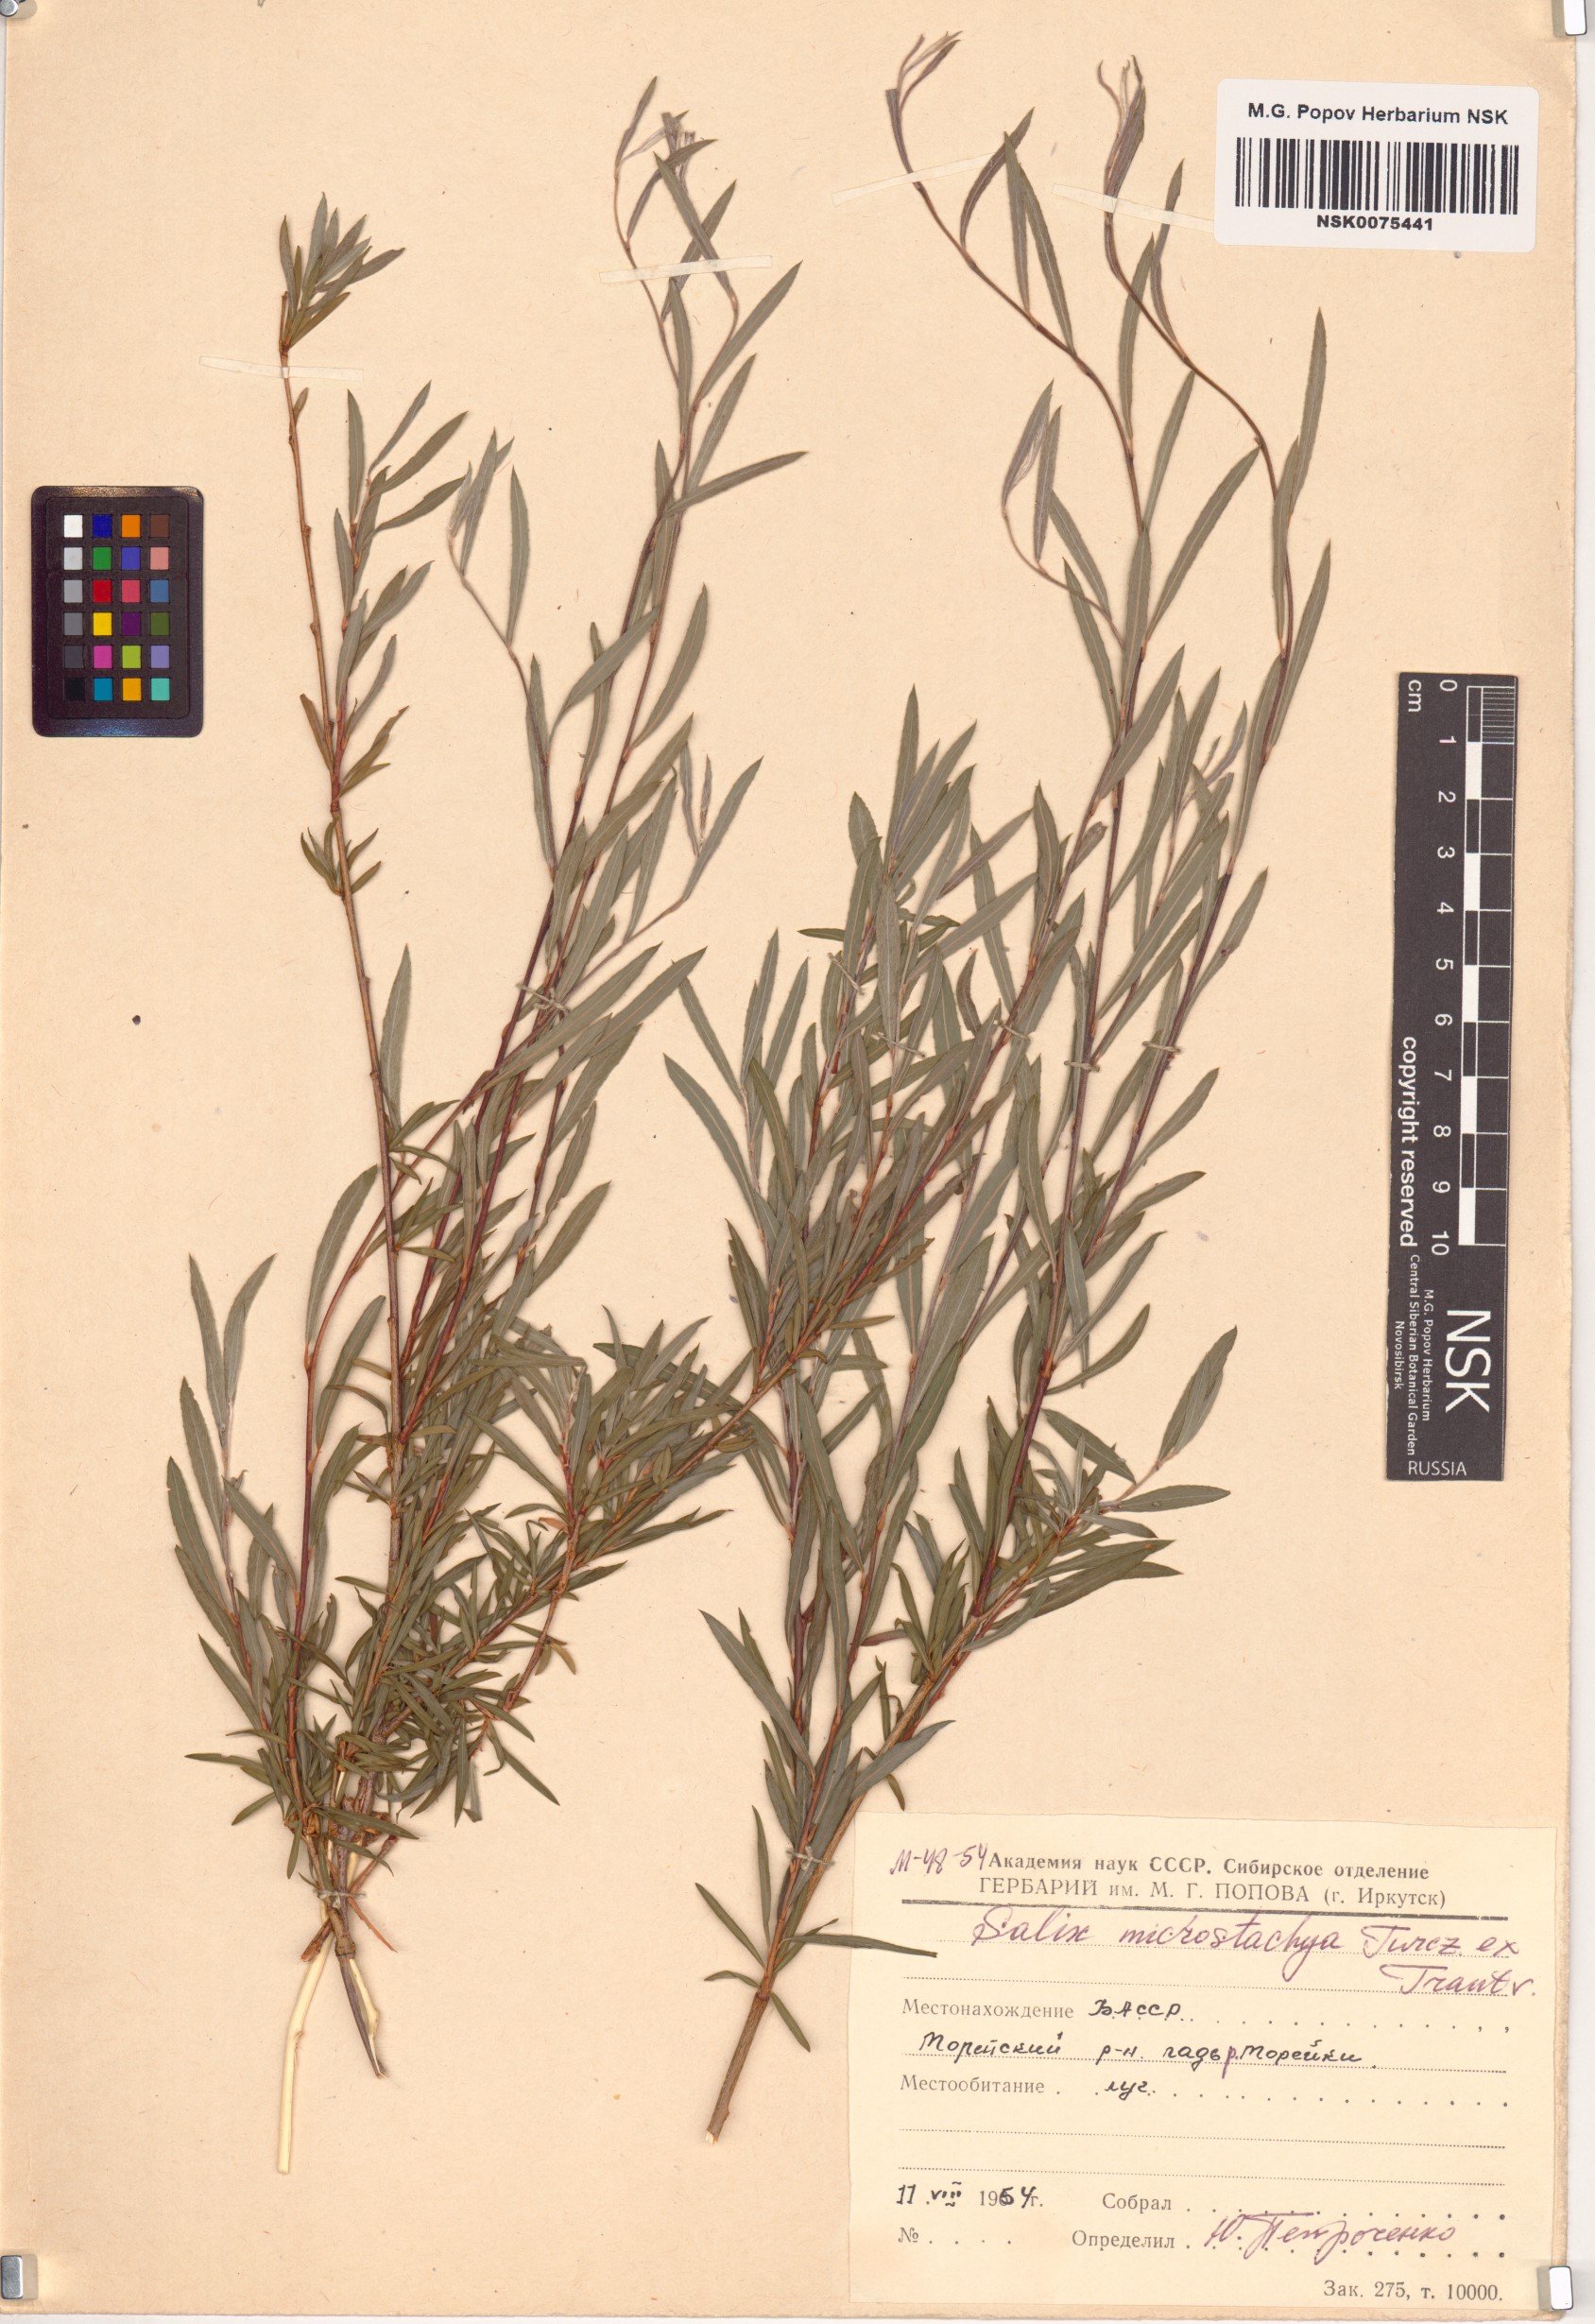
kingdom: Plantae
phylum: Tracheophyta
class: Magnoliopsida
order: Malpighiales
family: Salicaceae
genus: Salix
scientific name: Salix microstachya
